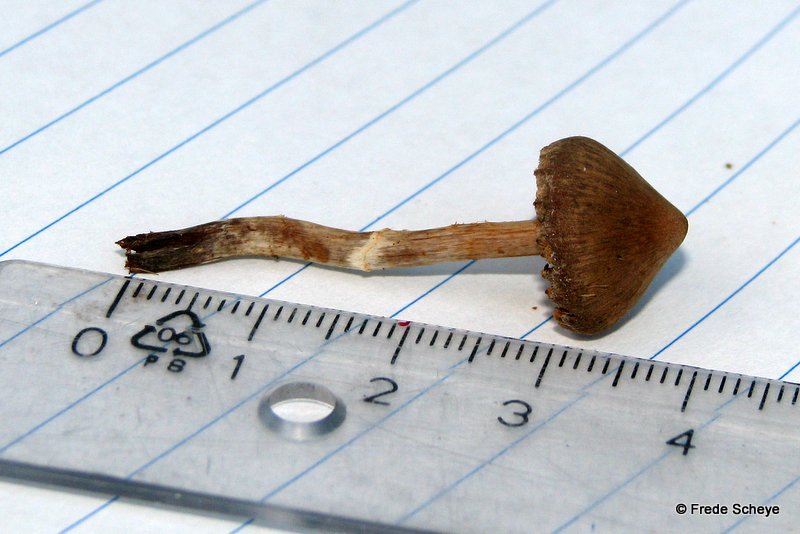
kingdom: Fungi
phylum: Basidiomycota
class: Agaricomycetes
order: Agaricales
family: Cortinariaceae
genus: Cortinarius
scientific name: Cortinarius
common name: pelargonie-slørhat
